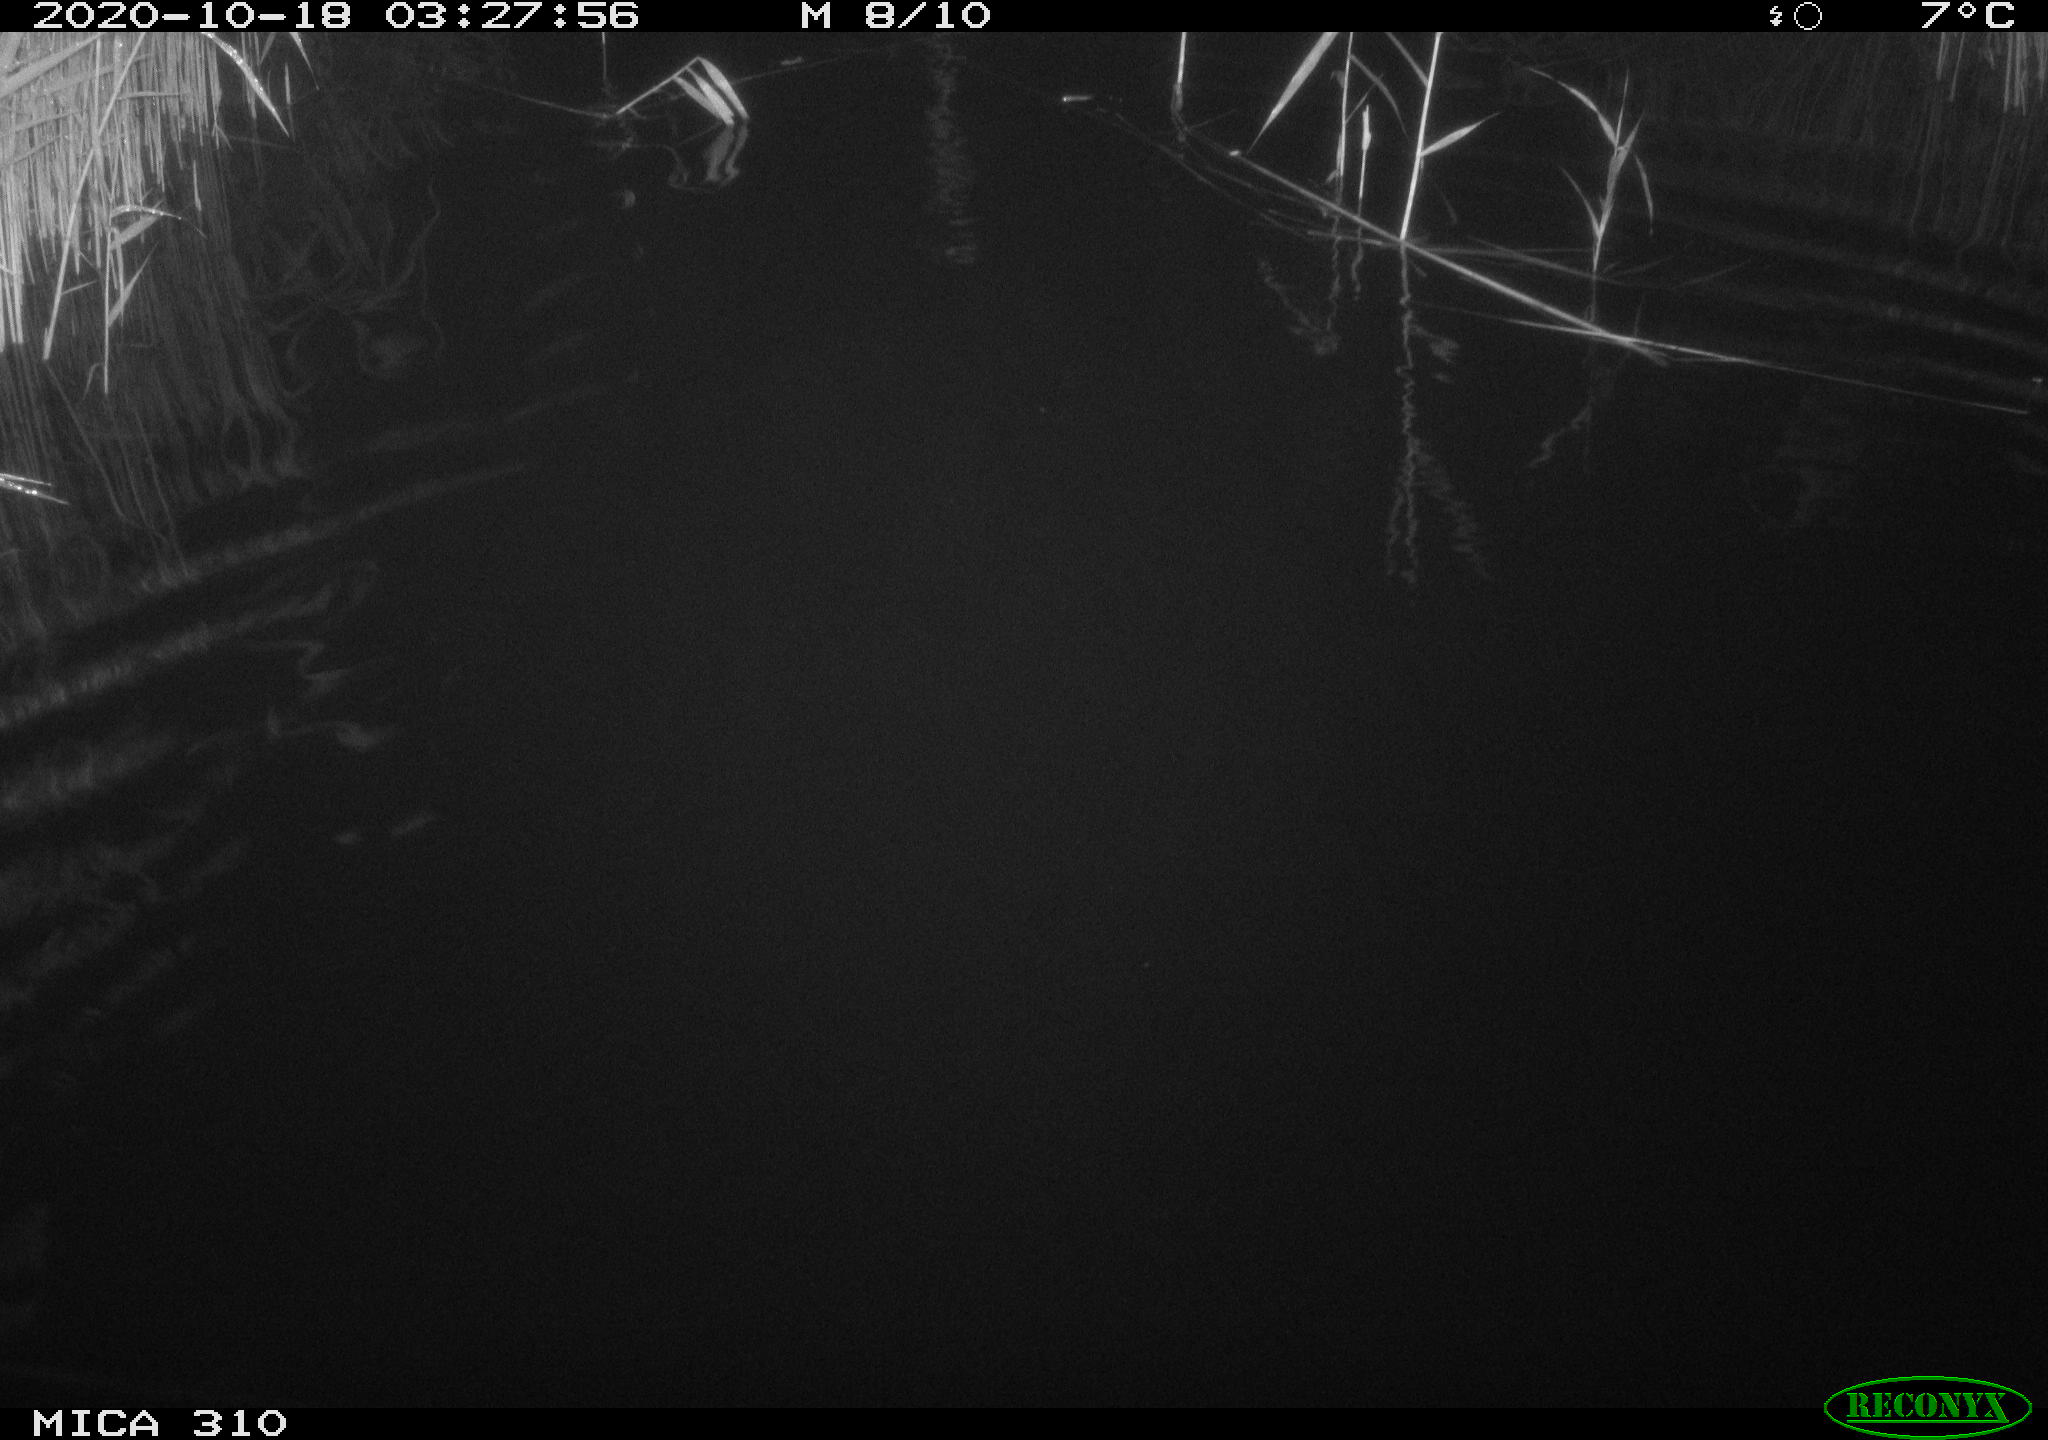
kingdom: Animalia
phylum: Chordata
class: Mammalia
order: Rodentia
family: Cricetidae
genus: Ondatra
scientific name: Ondatra zibethicus
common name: Muskrat
